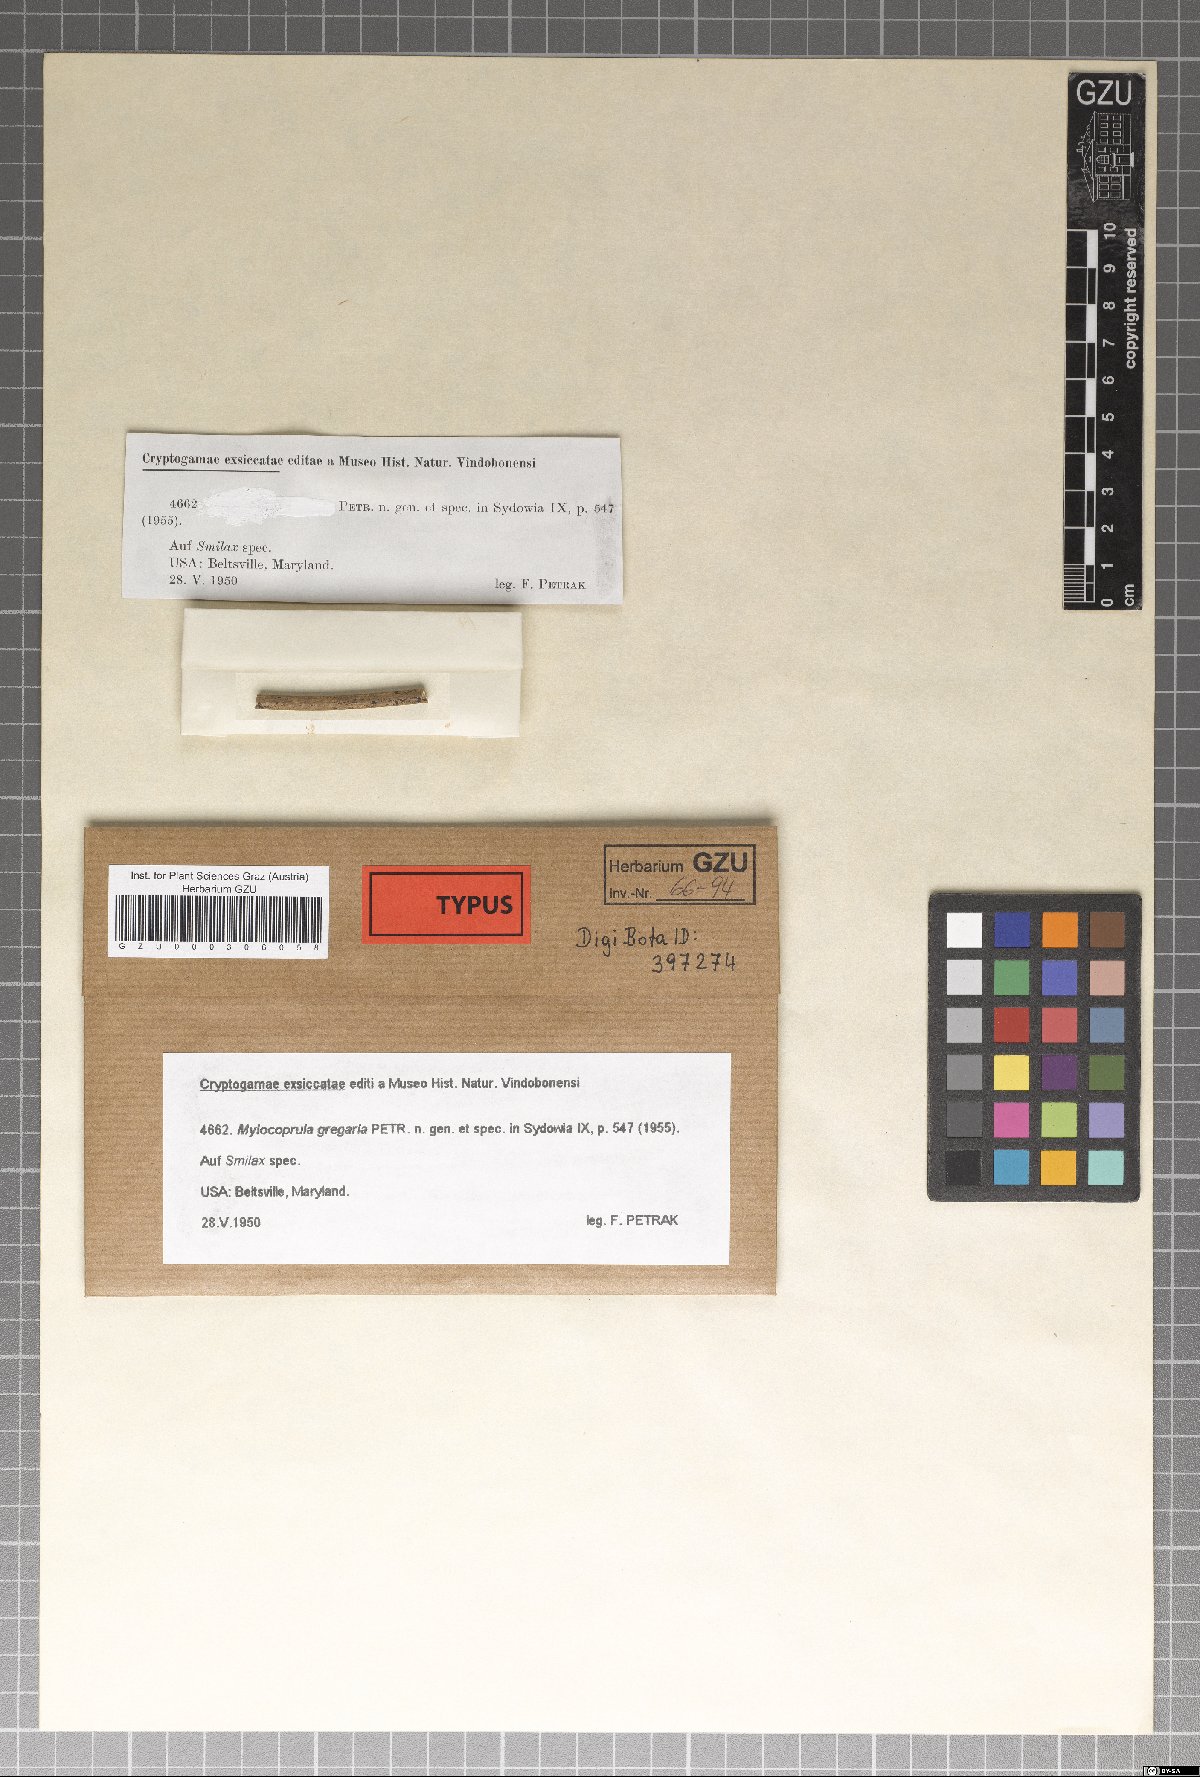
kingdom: Fungi
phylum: Ascomycota
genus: Myiocoprula
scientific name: Myiocoprula gregaria
